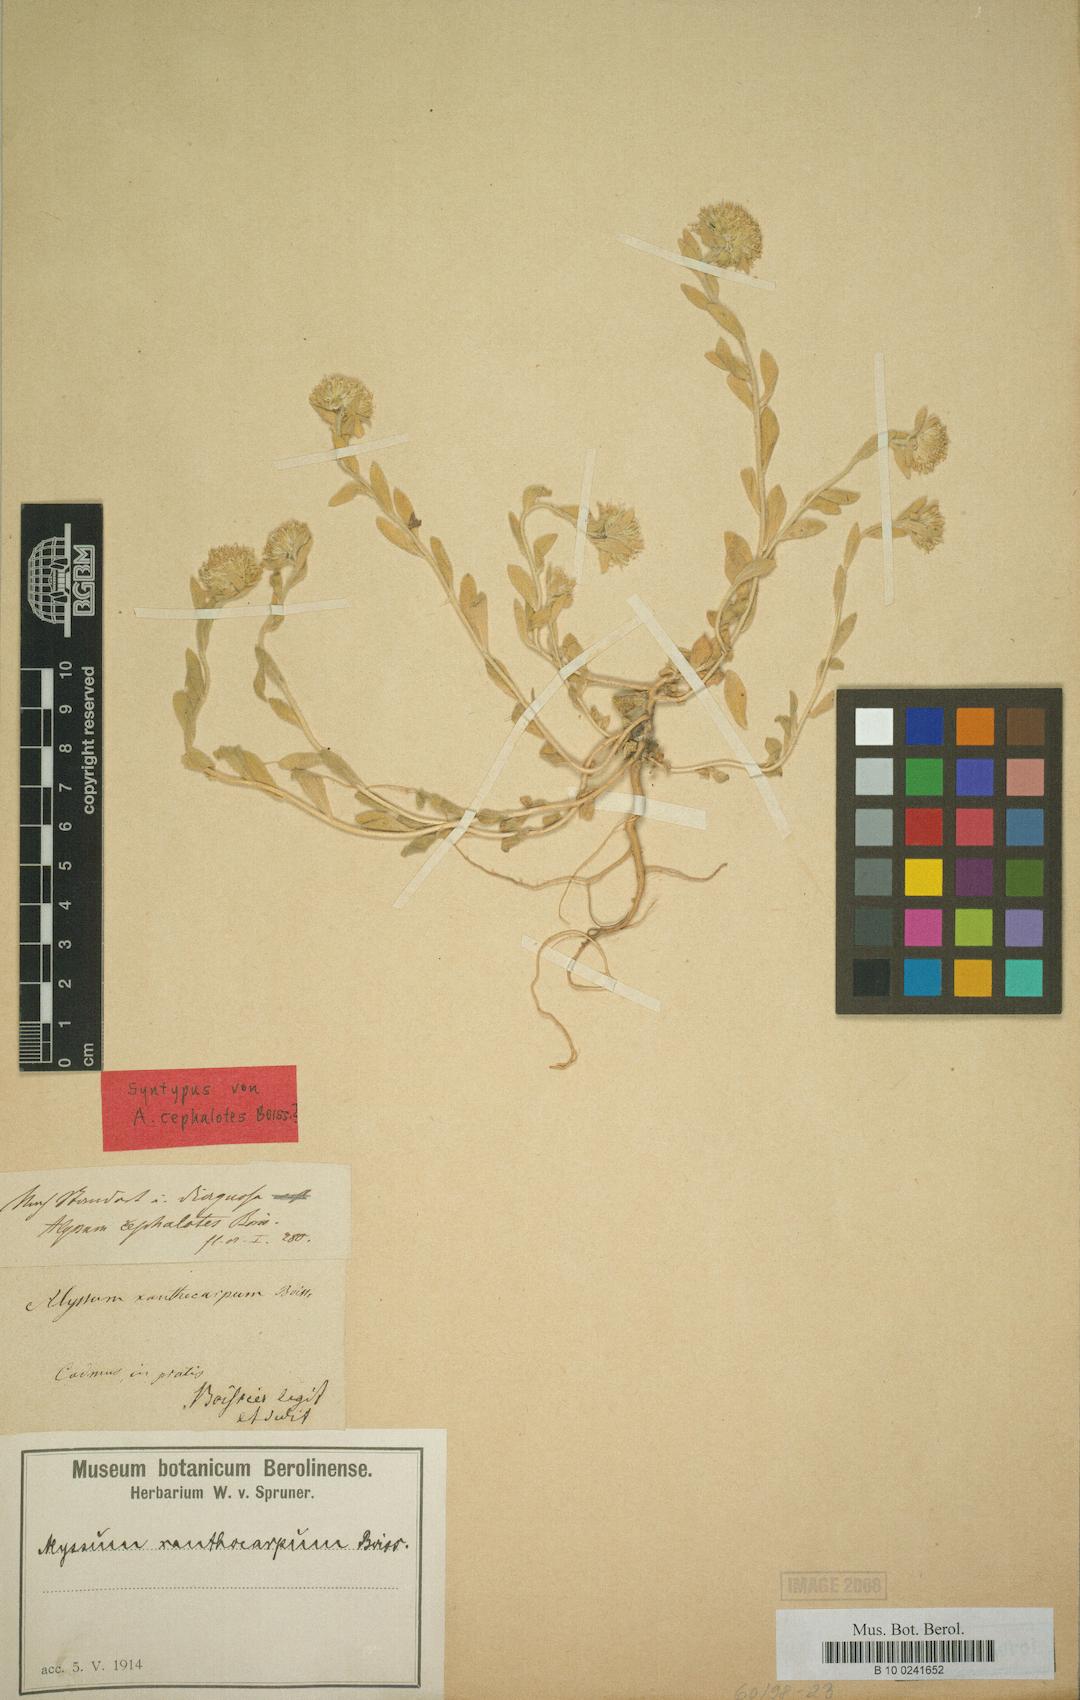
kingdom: Plantae
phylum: Tracheophyta
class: Magnoliopsida
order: Brassicales
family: Brassicaceae
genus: Alyssum
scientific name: Alyssum cephalotes
